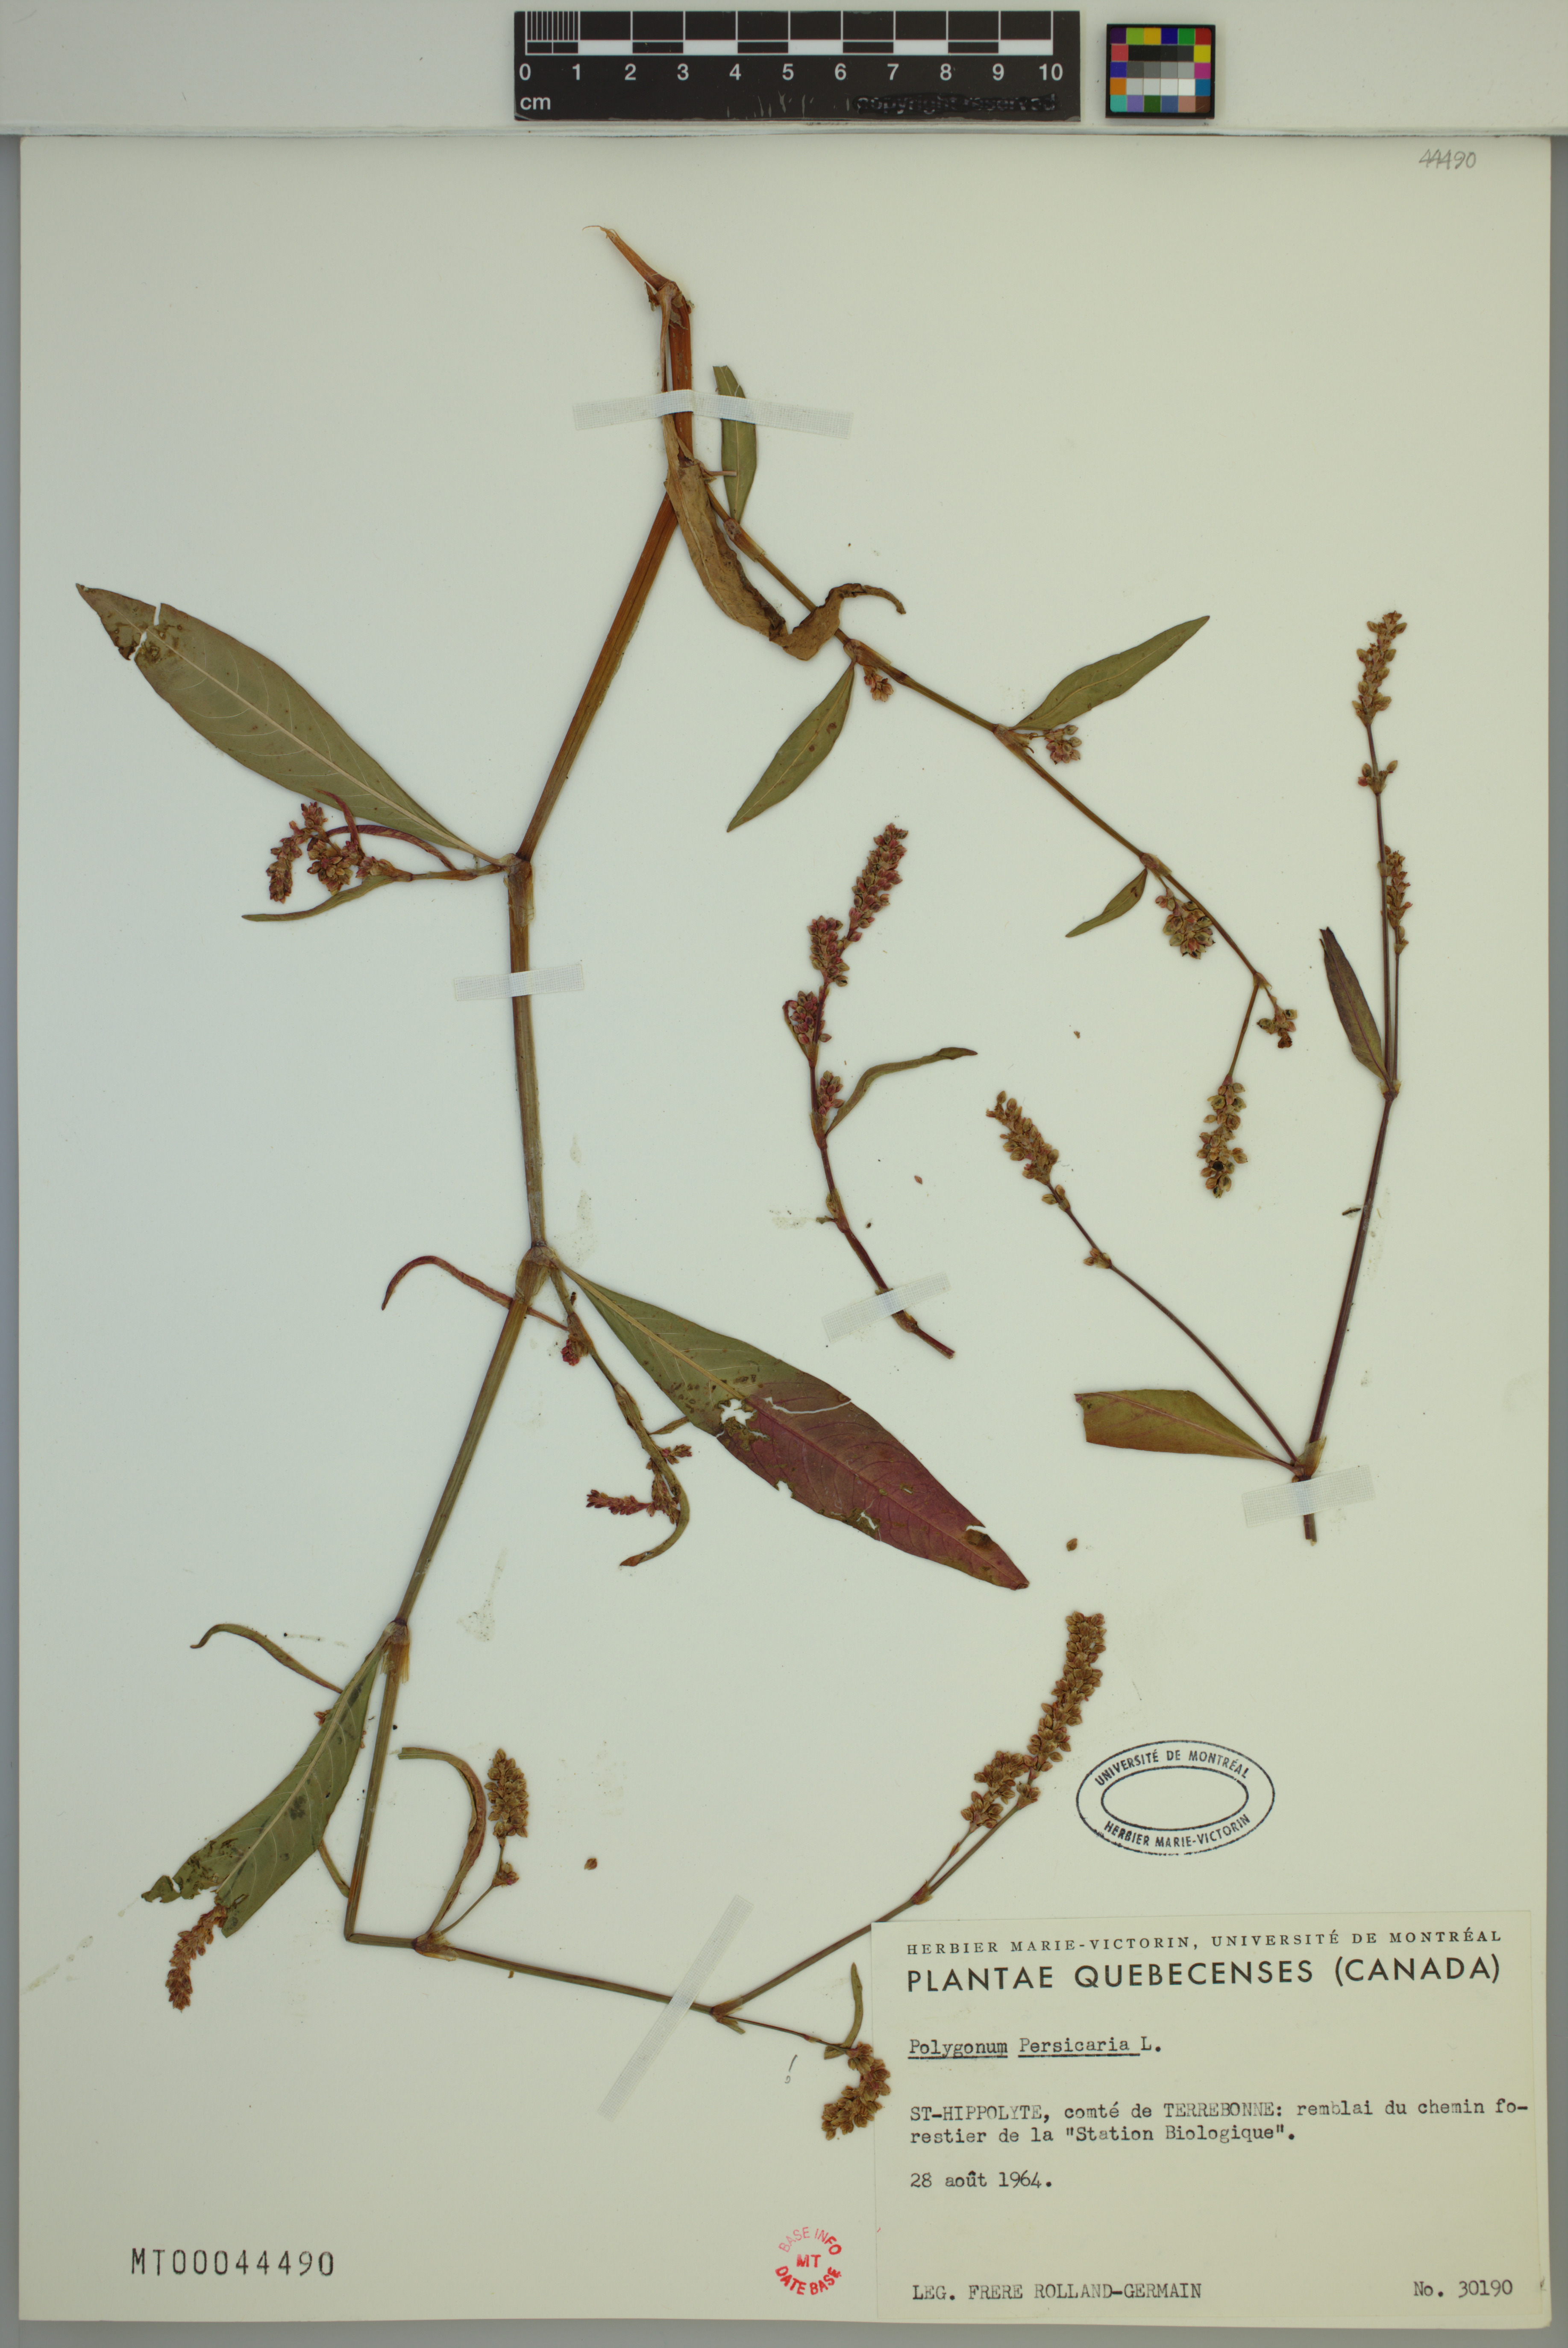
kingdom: Plantae
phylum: Tracheophyta
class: Magnoliopsida
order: Caryophyllales
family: Polygonaceae
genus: Persicaria
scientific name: Persicaria maculosa
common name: Redshank
